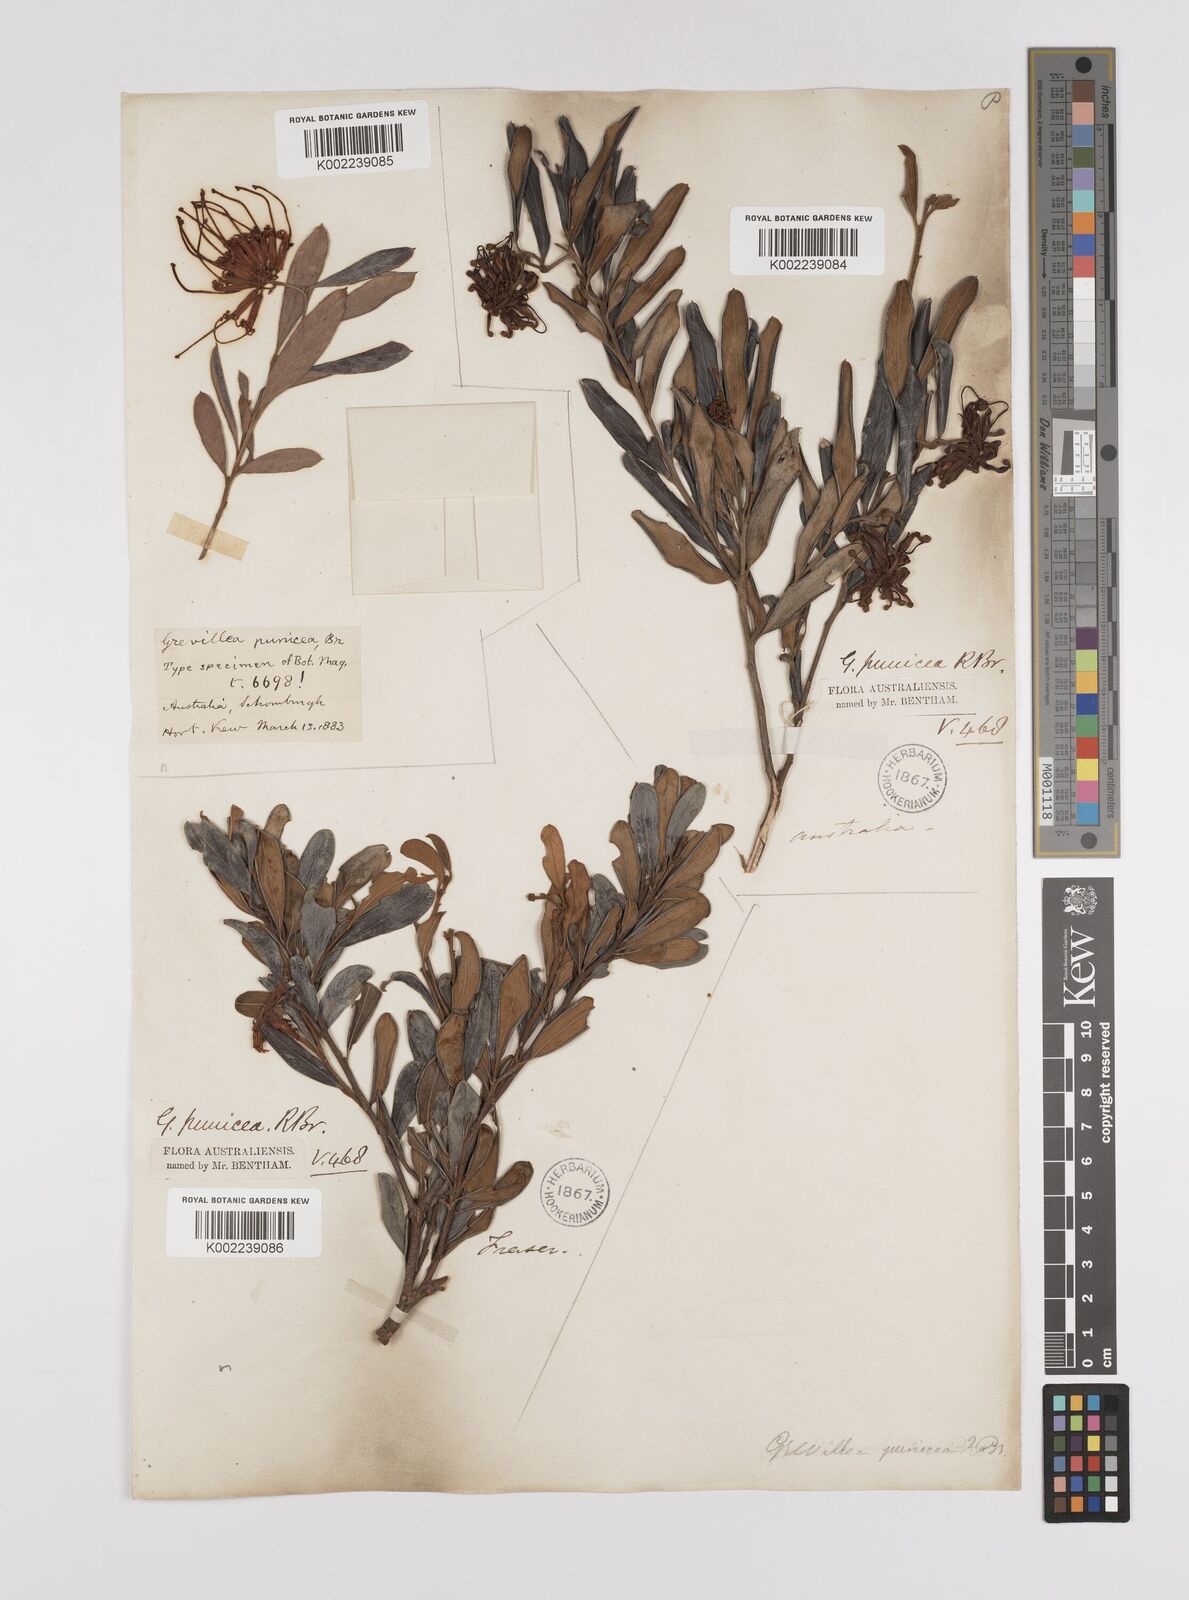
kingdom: Plantae
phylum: Tracheophyta
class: Magnoliopsida
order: Proteales
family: Proteaceae
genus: Grevillea
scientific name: Grevillea speciosa
